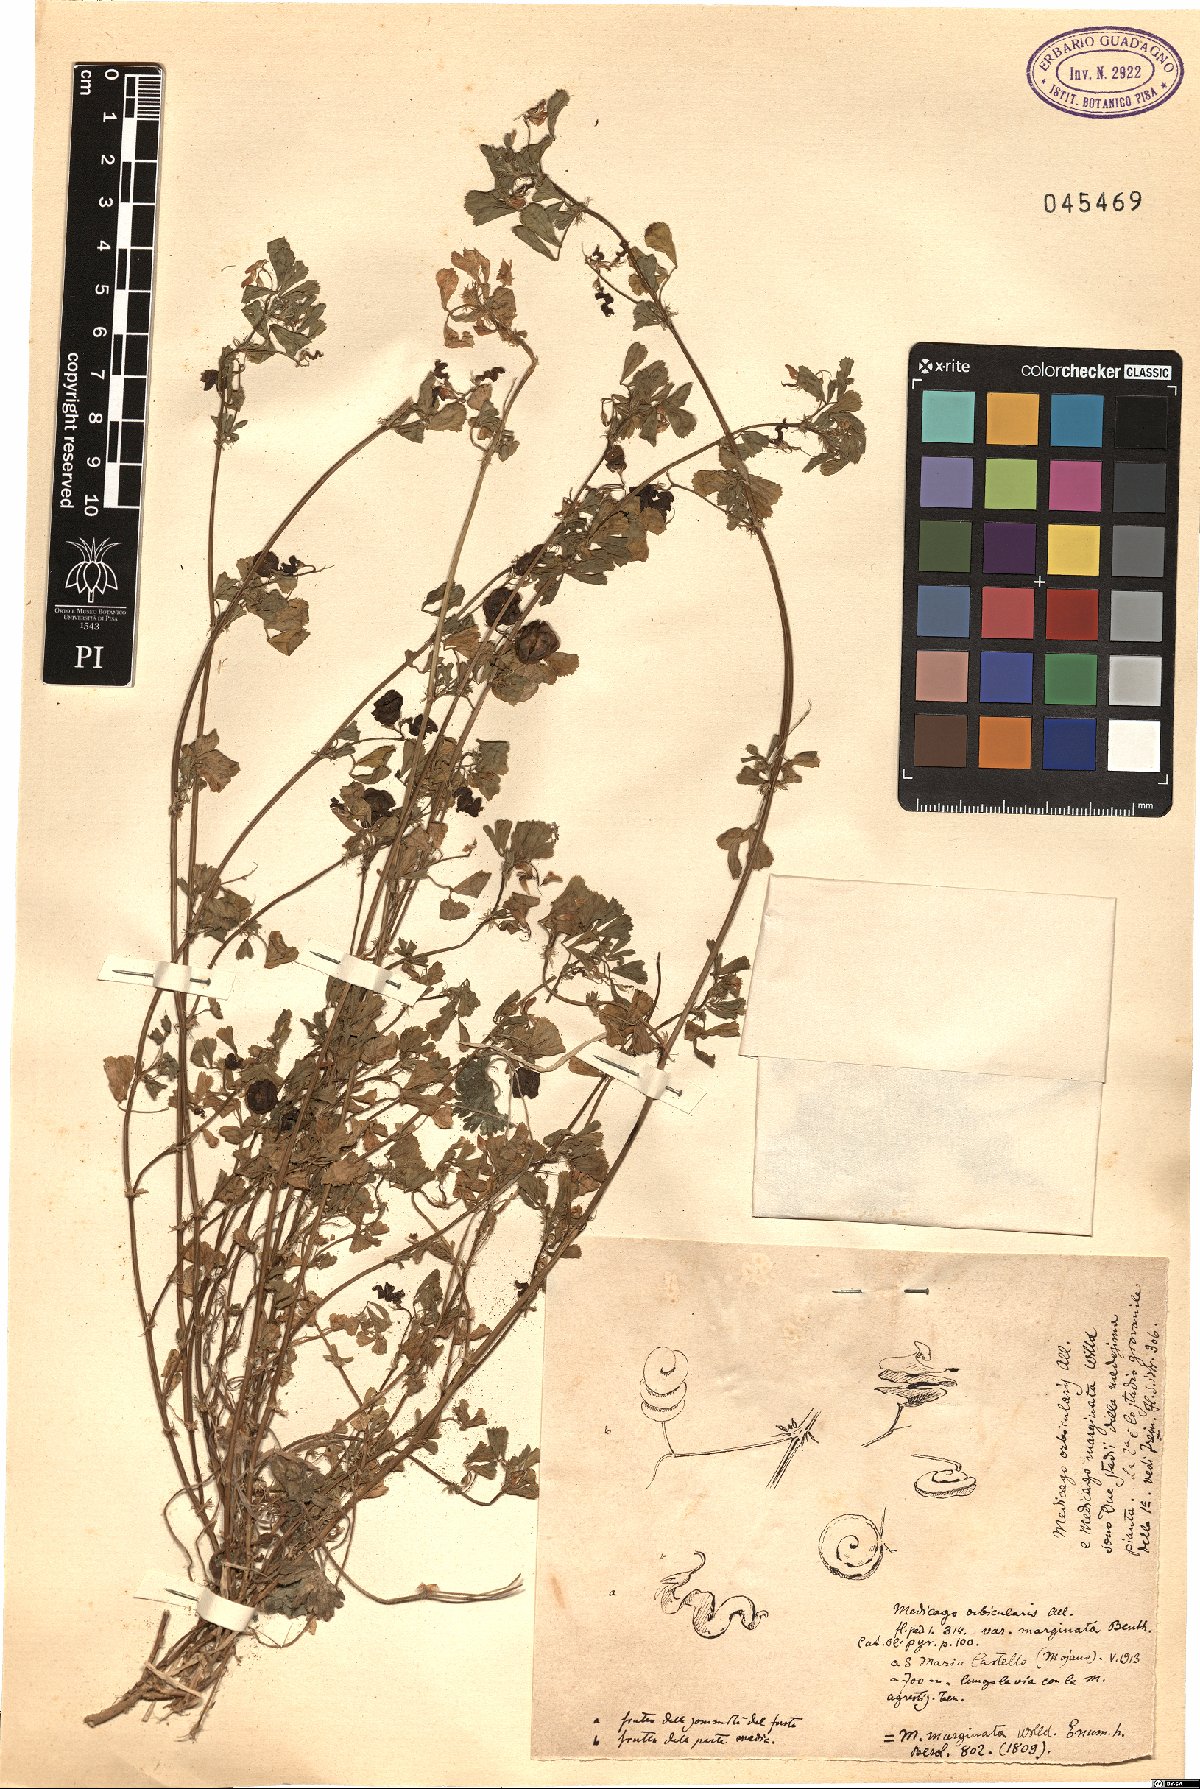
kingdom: Plantae
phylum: Tracheophyta
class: Magnoliopsida
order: Fabales
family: Fabaceae
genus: Medicago
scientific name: Medicago orbicularis
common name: Button medick
